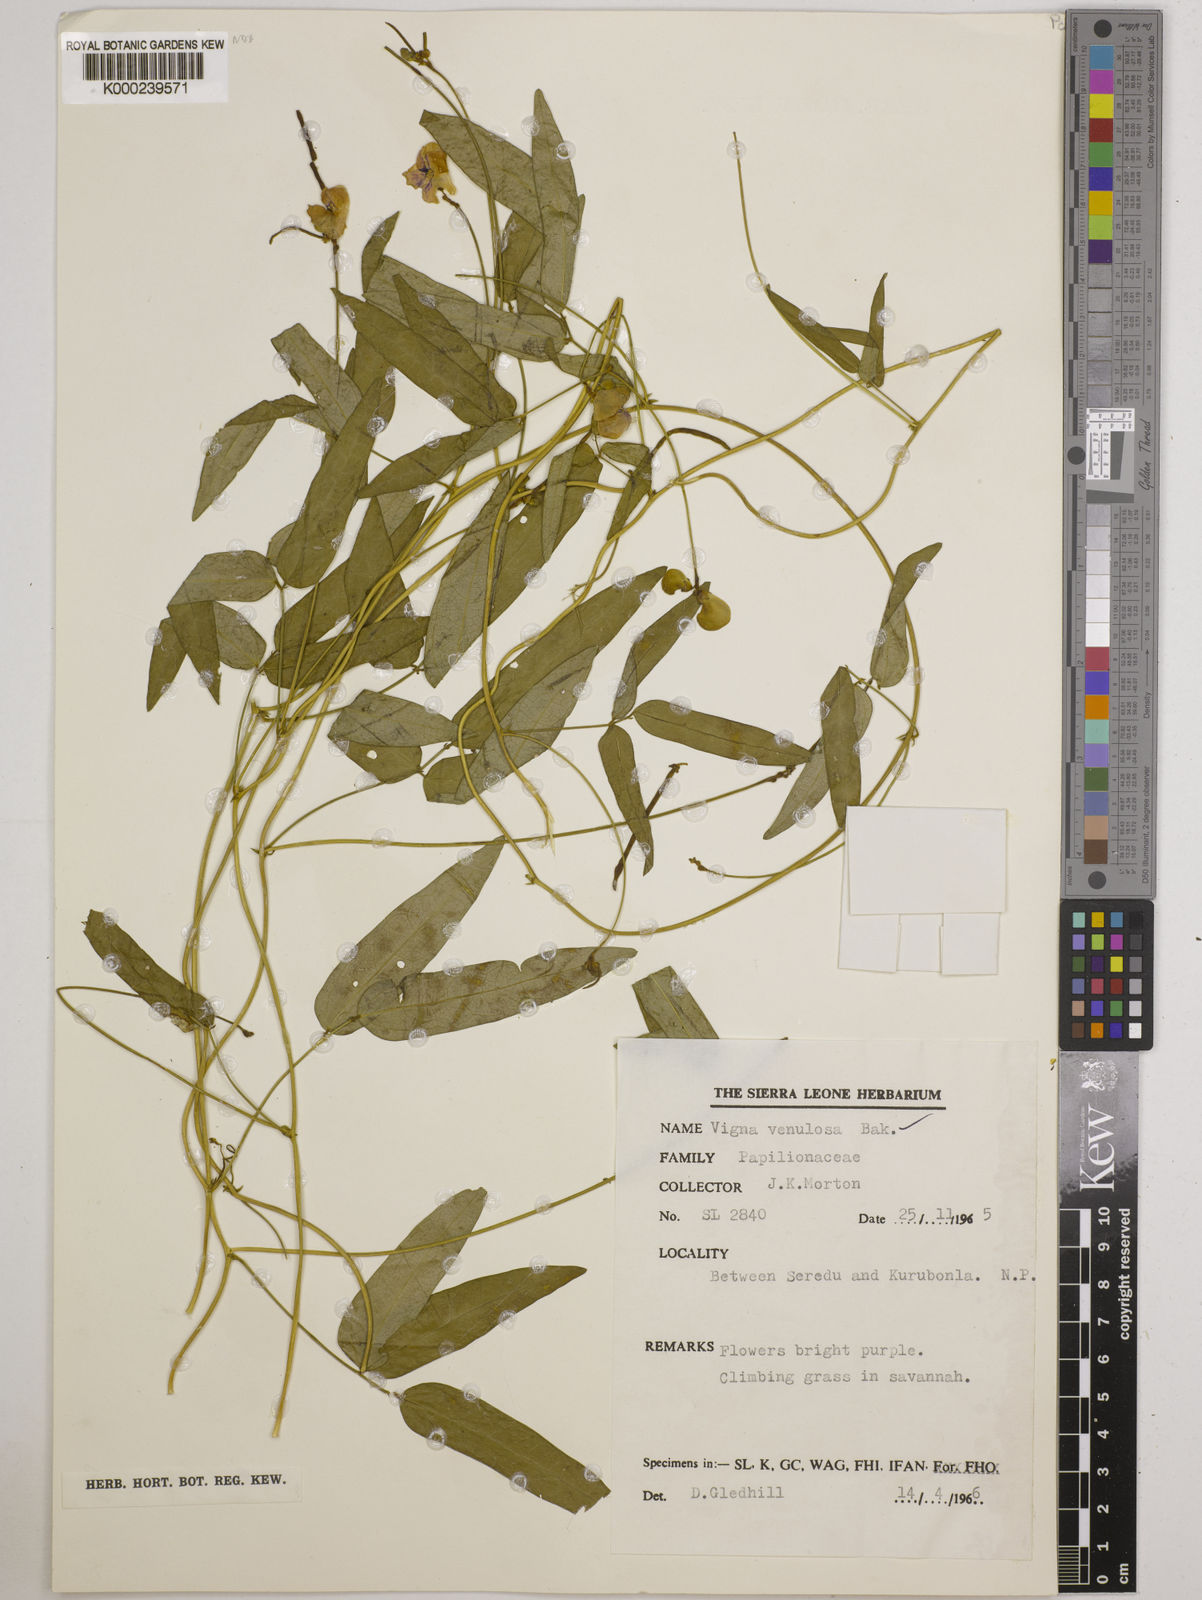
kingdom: Plantae
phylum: Tracheophyta
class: Magnoliopsida
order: Fabales
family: Fabaceae
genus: Vigna
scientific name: Vigna venulosa
